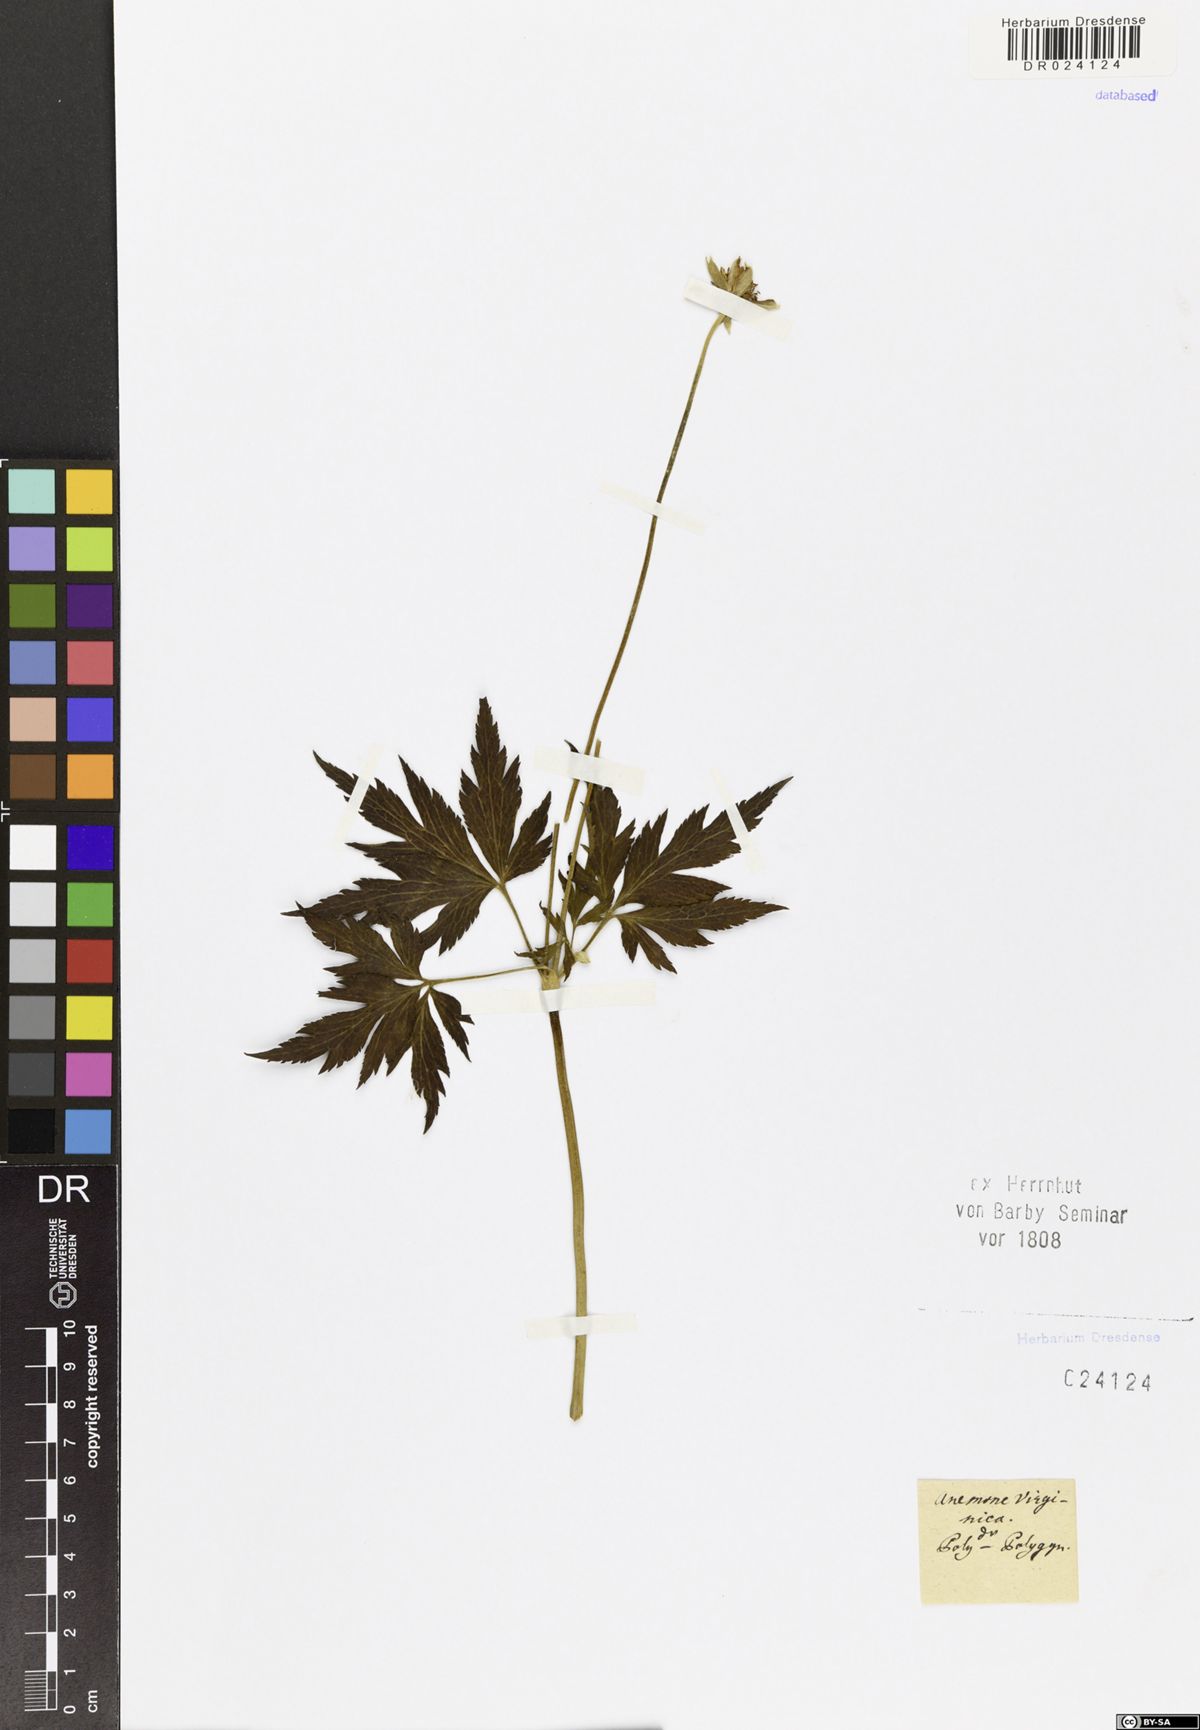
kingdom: Plantae
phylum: Tracheophyta
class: Magnoliopsida
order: Ranunculales
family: Ranunculaceae
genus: Anemone
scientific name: Anemone virginiana
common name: Tall anemone
